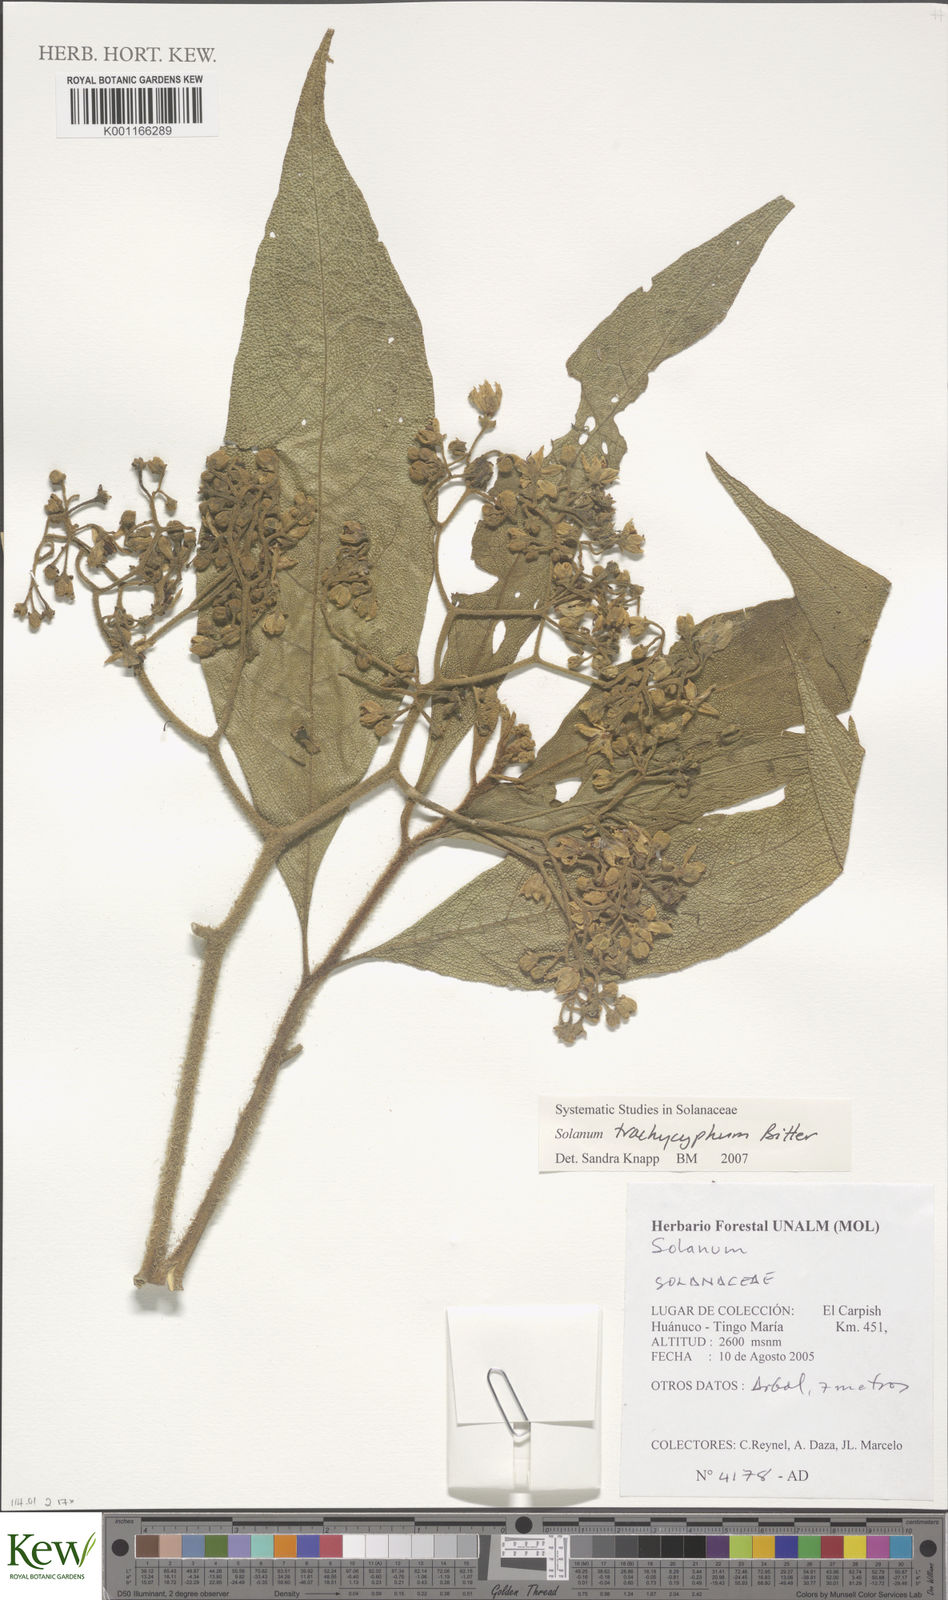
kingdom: Plantae
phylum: Tracheophyta
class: Magnoliopsida
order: Solanales
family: Solanaceae
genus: Solanum
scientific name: Solanum trachycyphum
